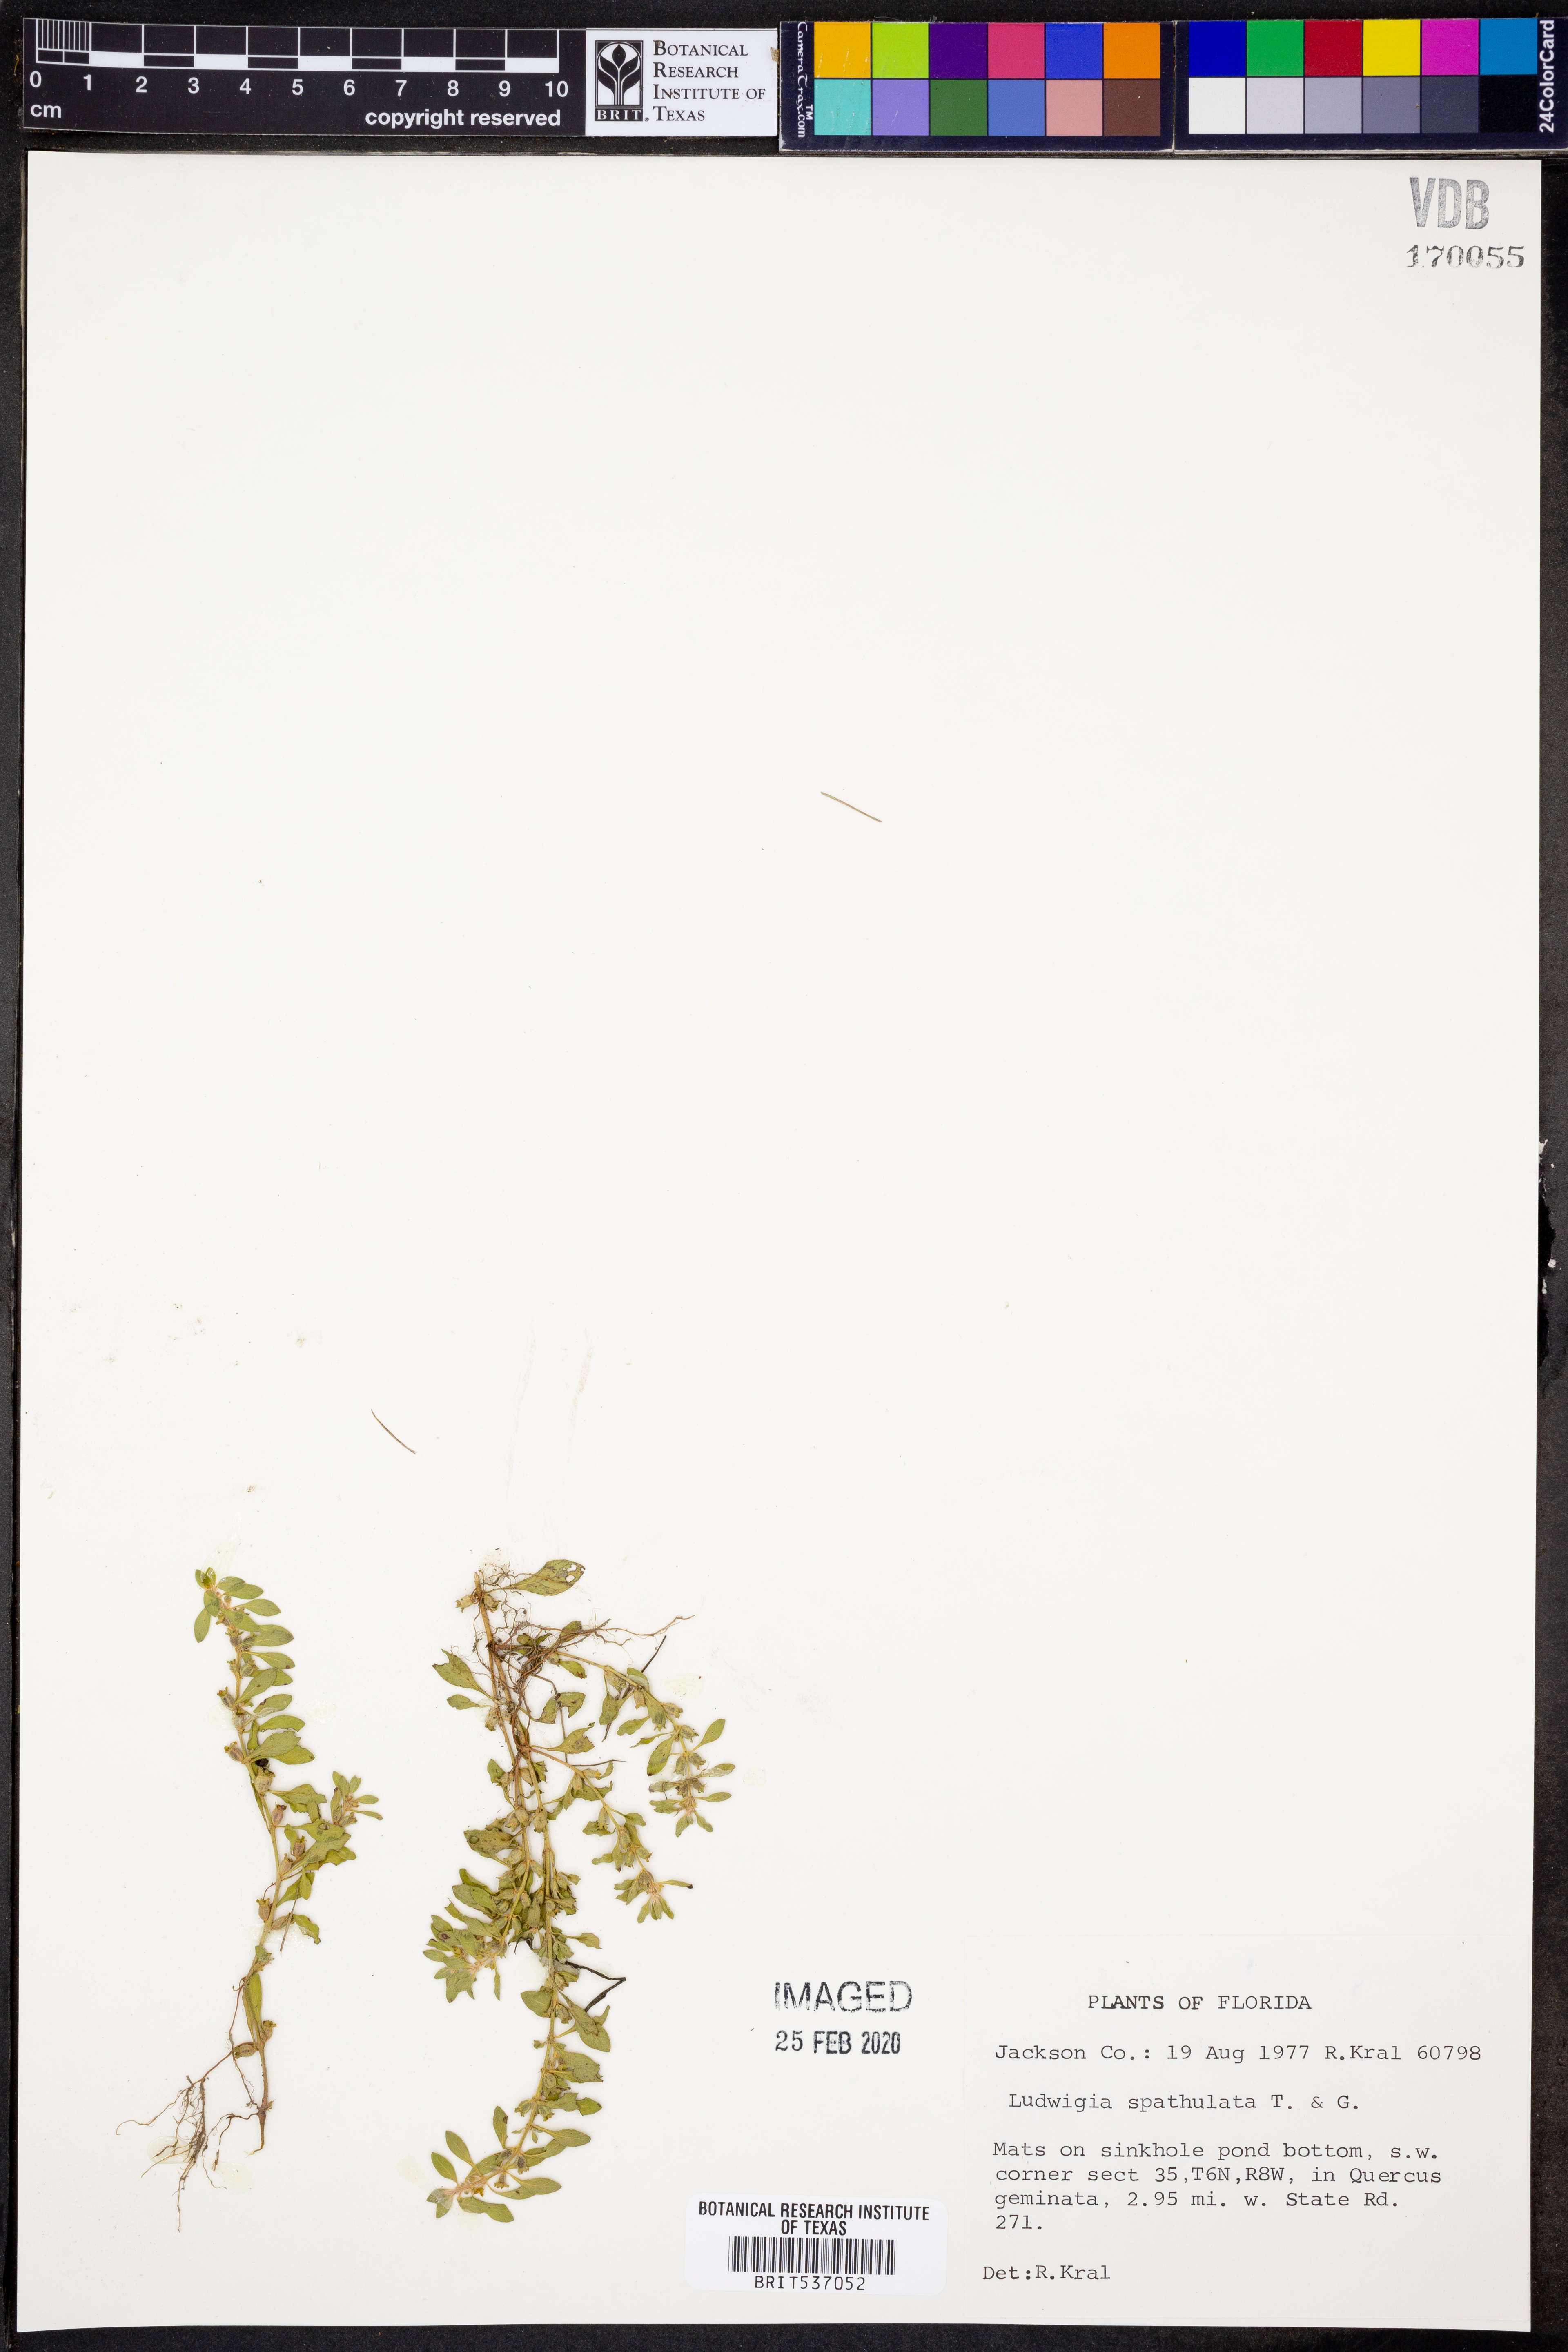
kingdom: Plantae
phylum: Tracheophyta
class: Magnoliopsida
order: Myrtales
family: Onagraceae
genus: Ludwigia
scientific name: Ludwigia spathulata
